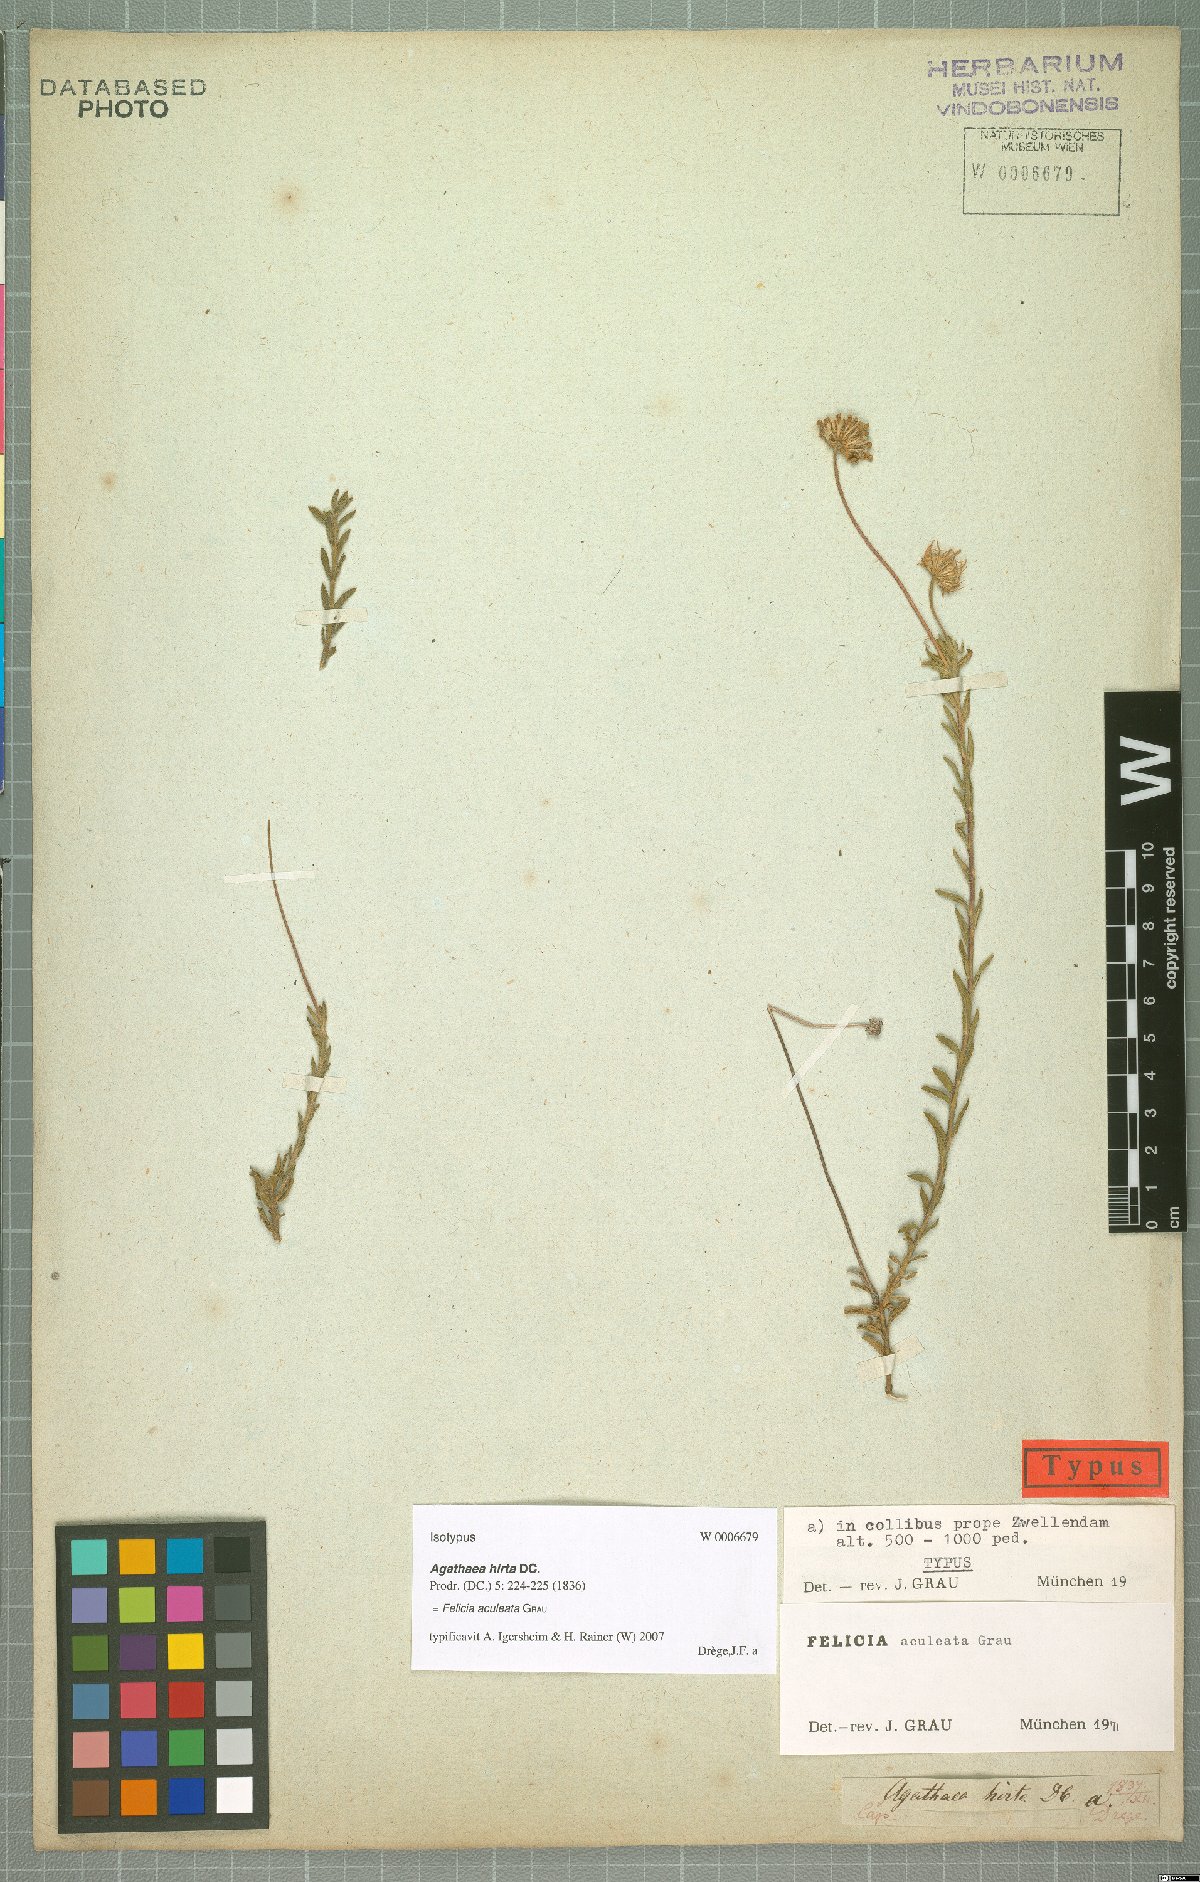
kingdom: Plantae
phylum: Tracheophyta
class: Magnoliopsida
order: Asterales
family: Asteraceae
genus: Felicia
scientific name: Felicia aculeata
